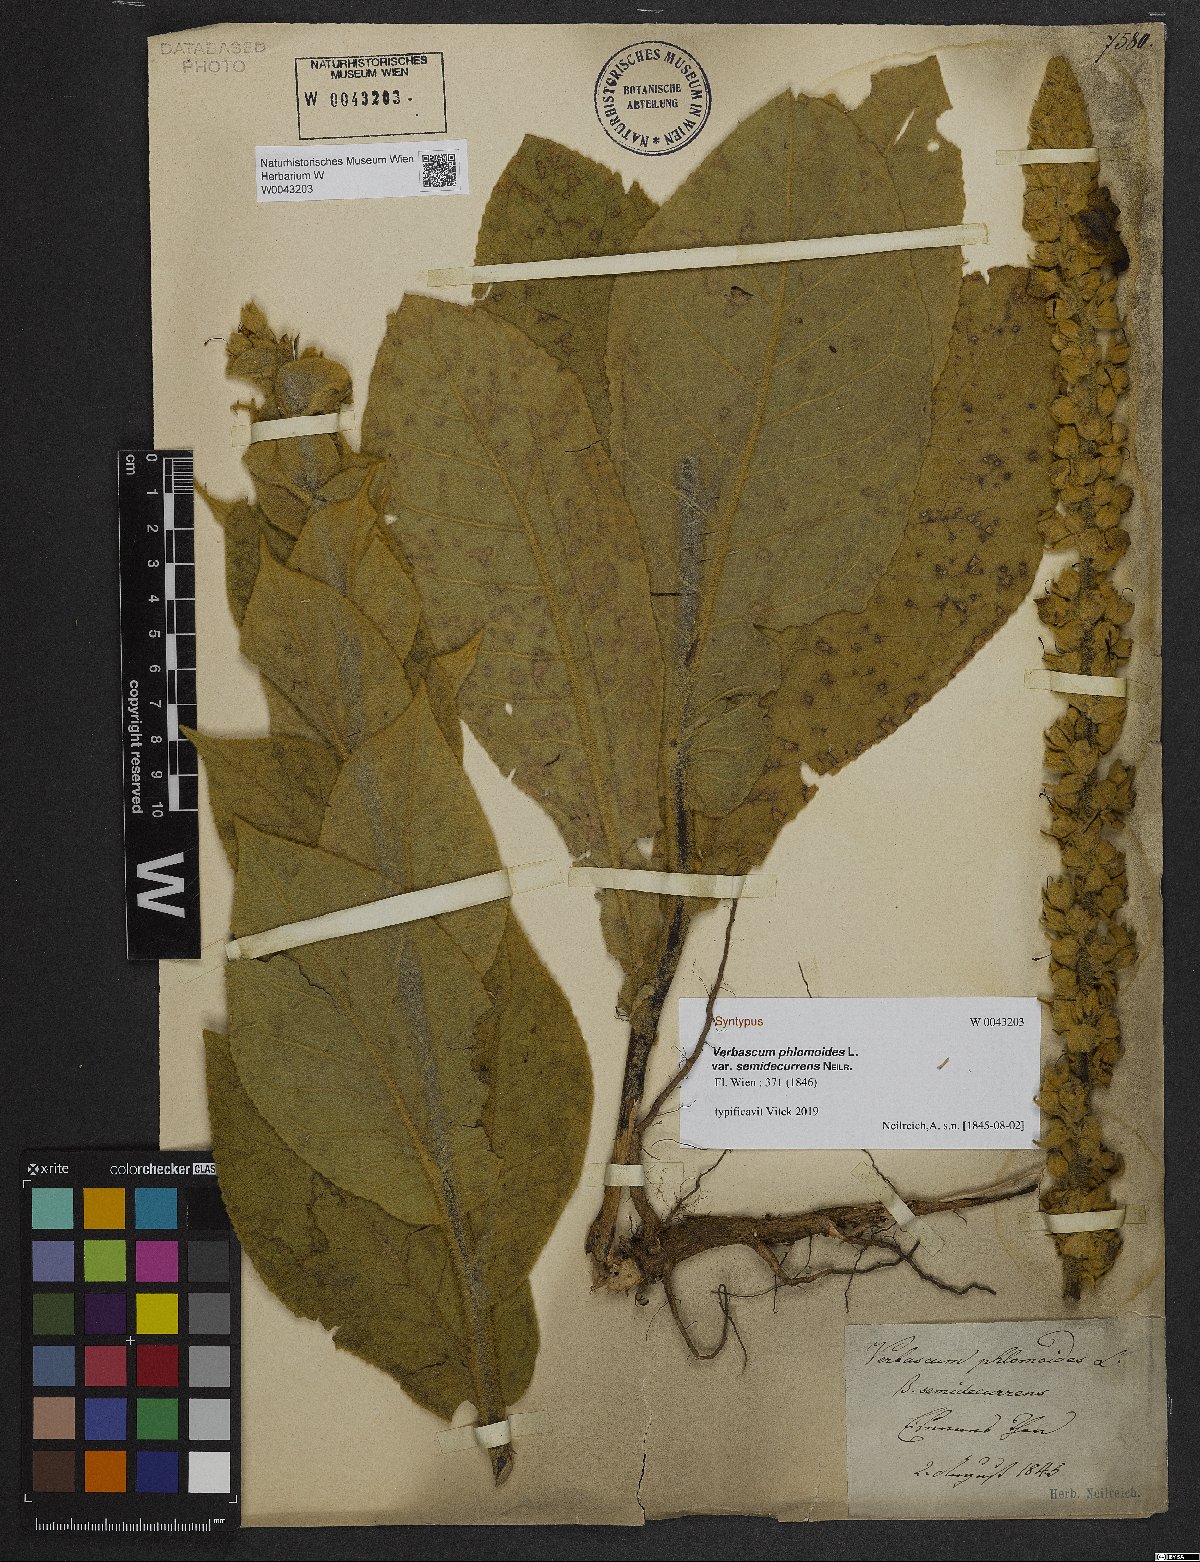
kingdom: Plantae
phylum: Tracheophyta
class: Magnoliopsida
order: Lamiales
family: Scrophulariaceae
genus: Verbascum
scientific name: Verbascum phlomoides
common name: Orange mullein
